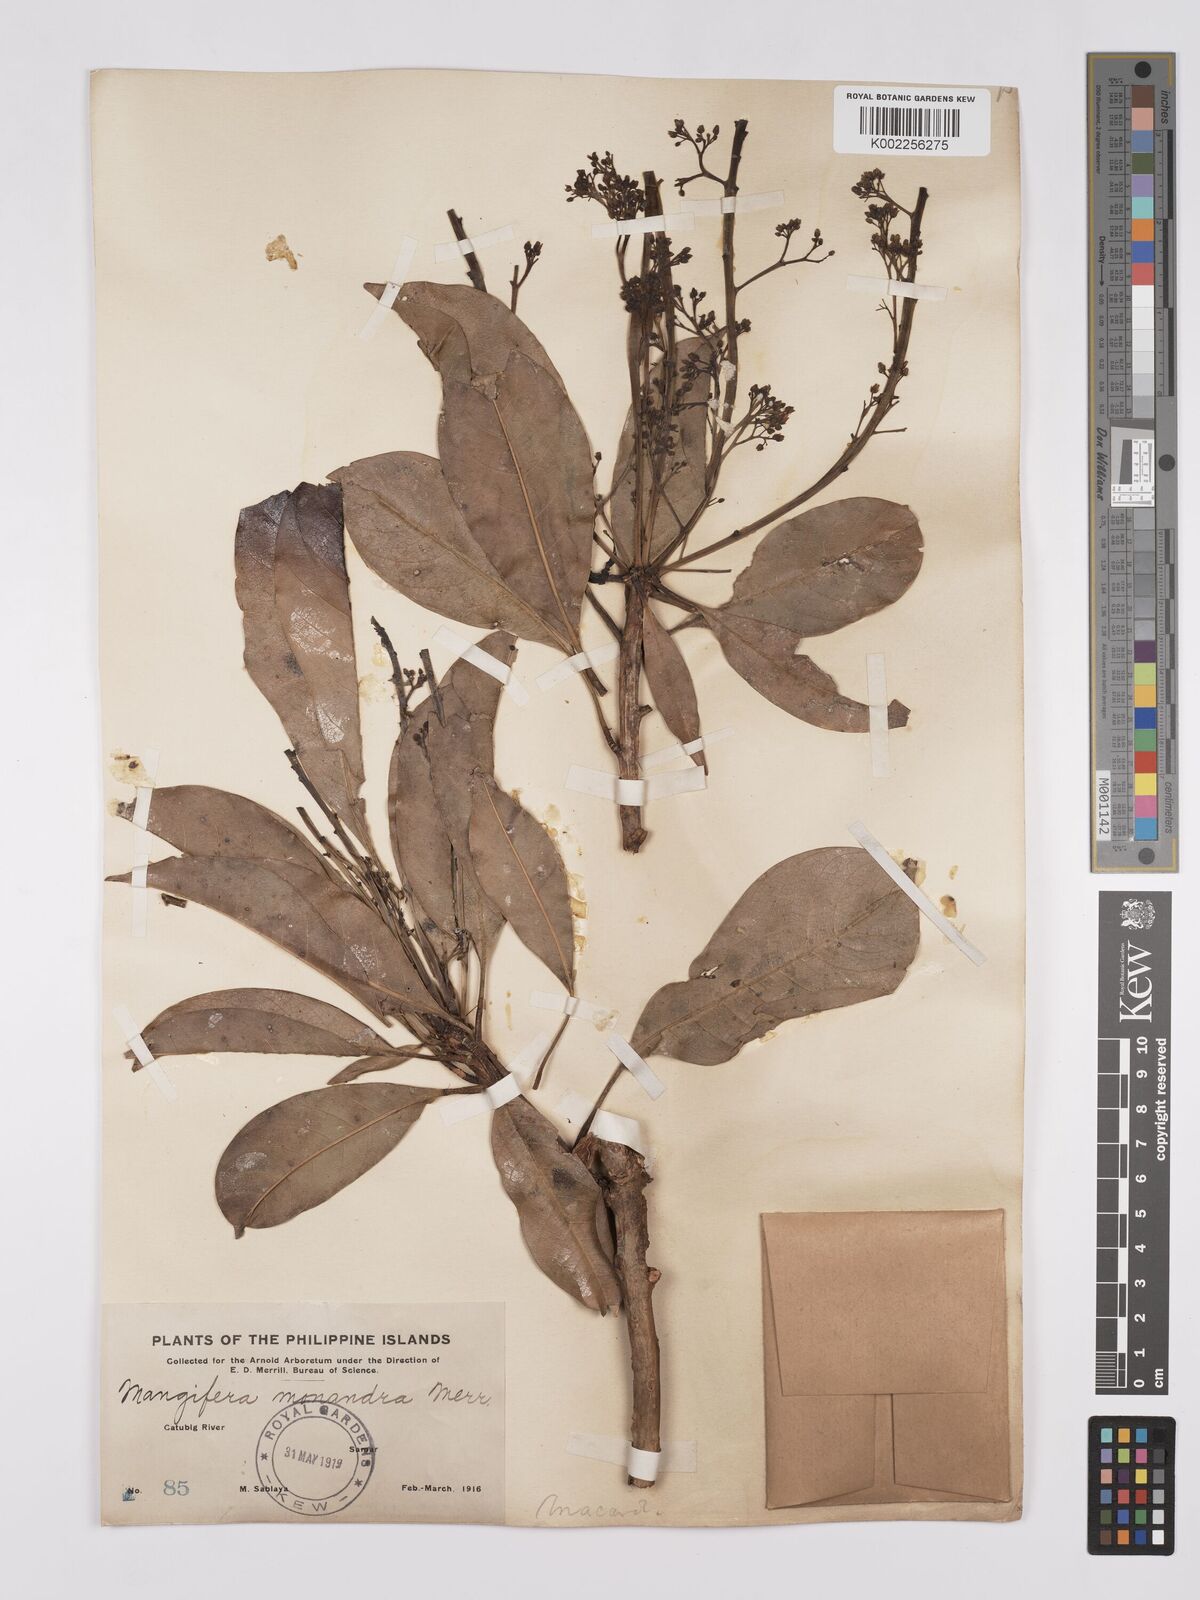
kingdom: Plantae
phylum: Tracheophyta
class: Magnoliopsida
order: Sapindales
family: Anacardiaceae
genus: Mangifera
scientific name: Mangifera monandra
